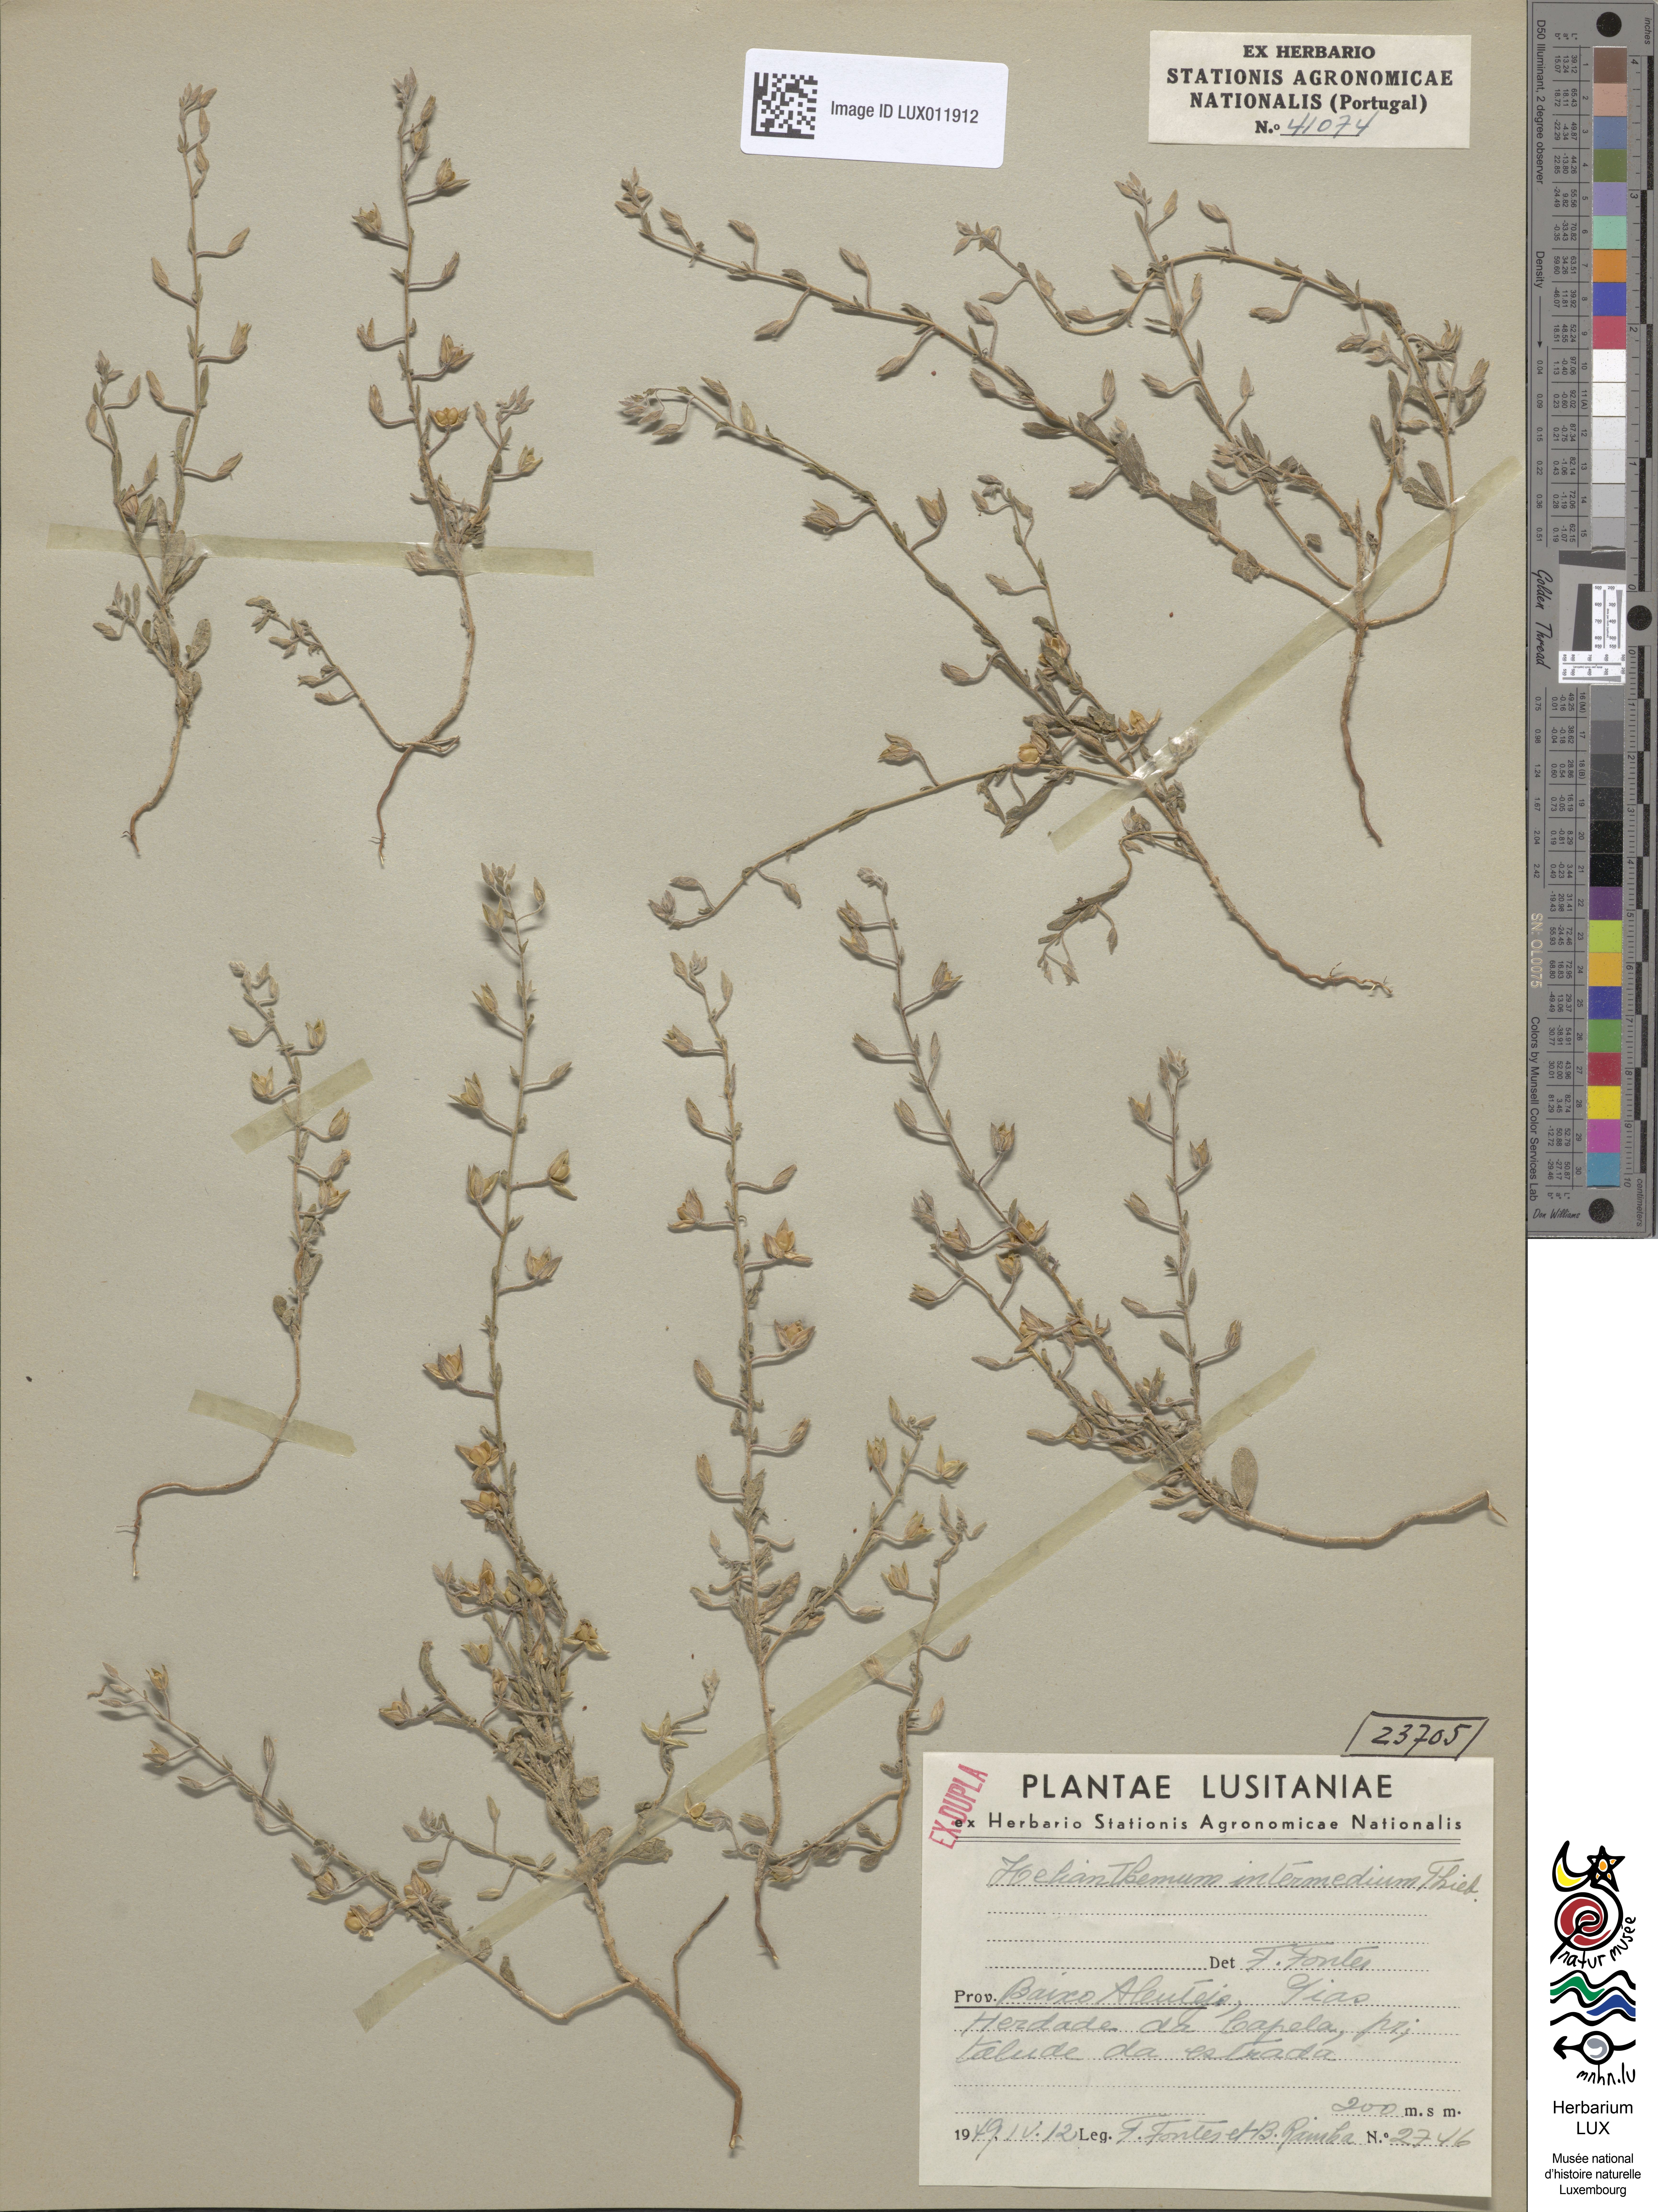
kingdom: Plantae
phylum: Tracheophyta
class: Magnoliopsida
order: Malvales
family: Cistaceae
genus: Helianthemum
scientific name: Helianthemum salicifolium
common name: Willowleaf frostweed
